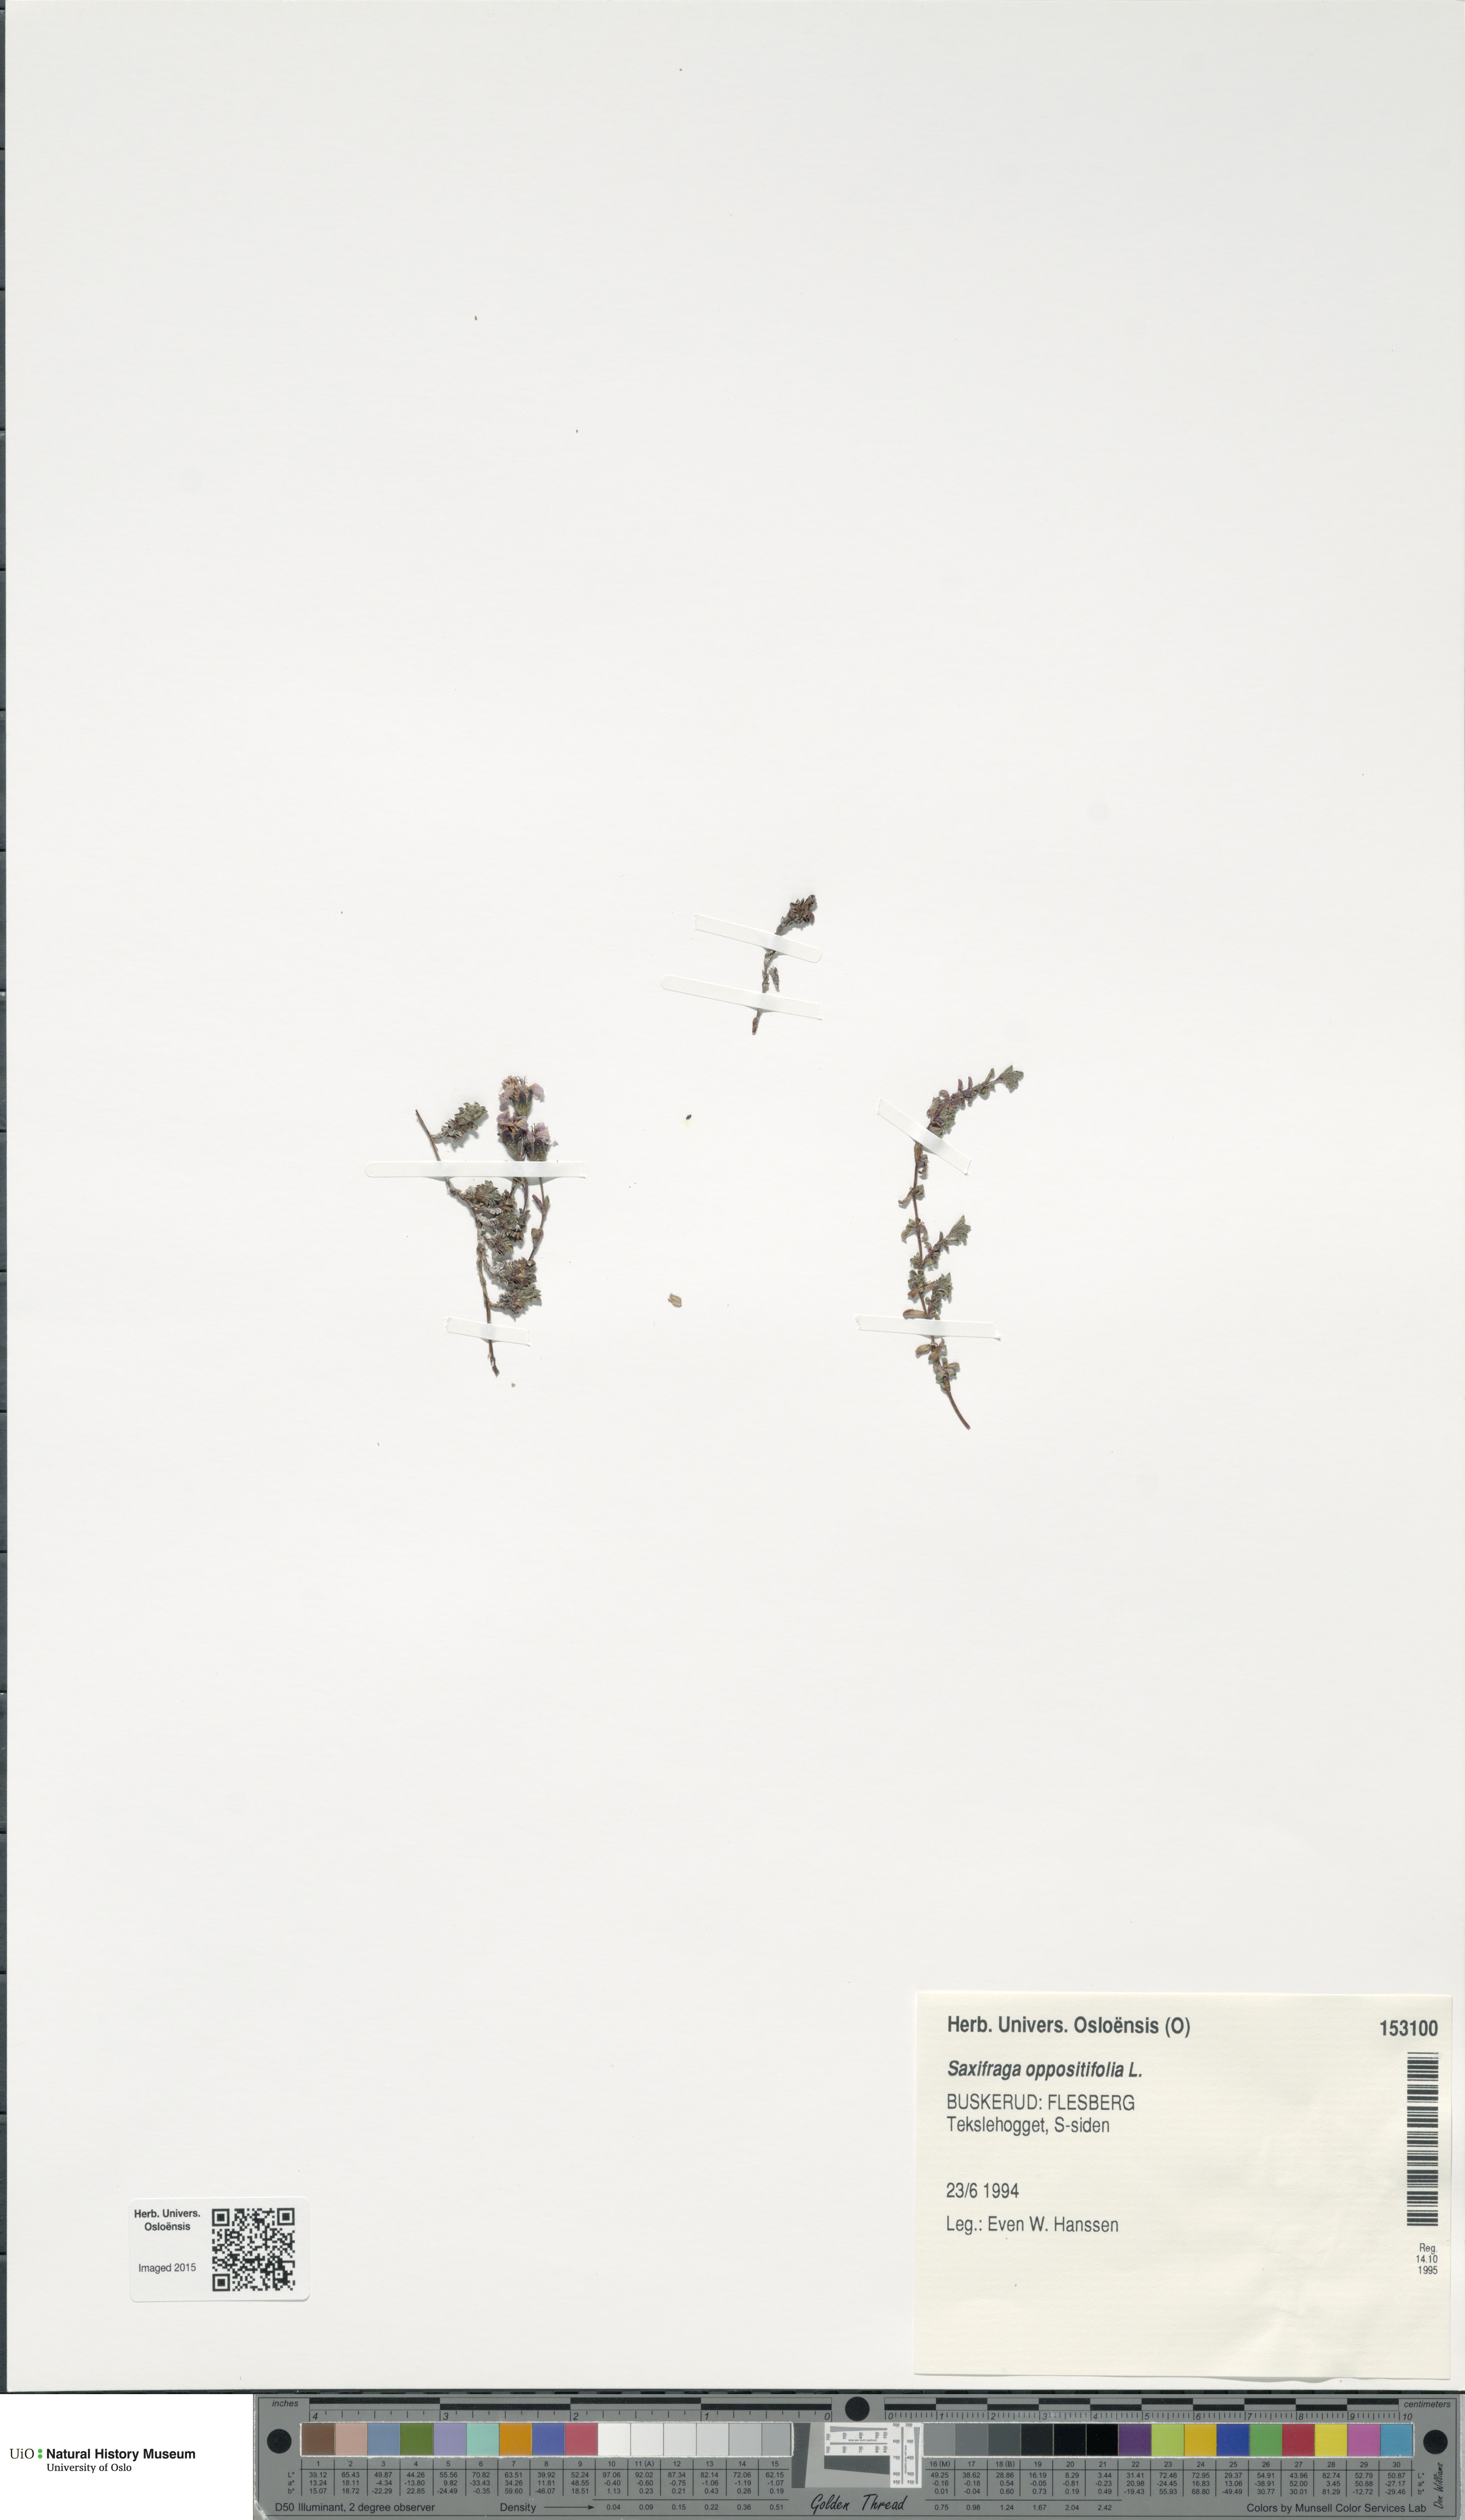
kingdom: Plantae
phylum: Tracheophyta
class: Magnoliopsida
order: Saxifragales
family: Saxifragaceae
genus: Saxifraga
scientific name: Saxifraga oppositifolia
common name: Purple saxifrage
